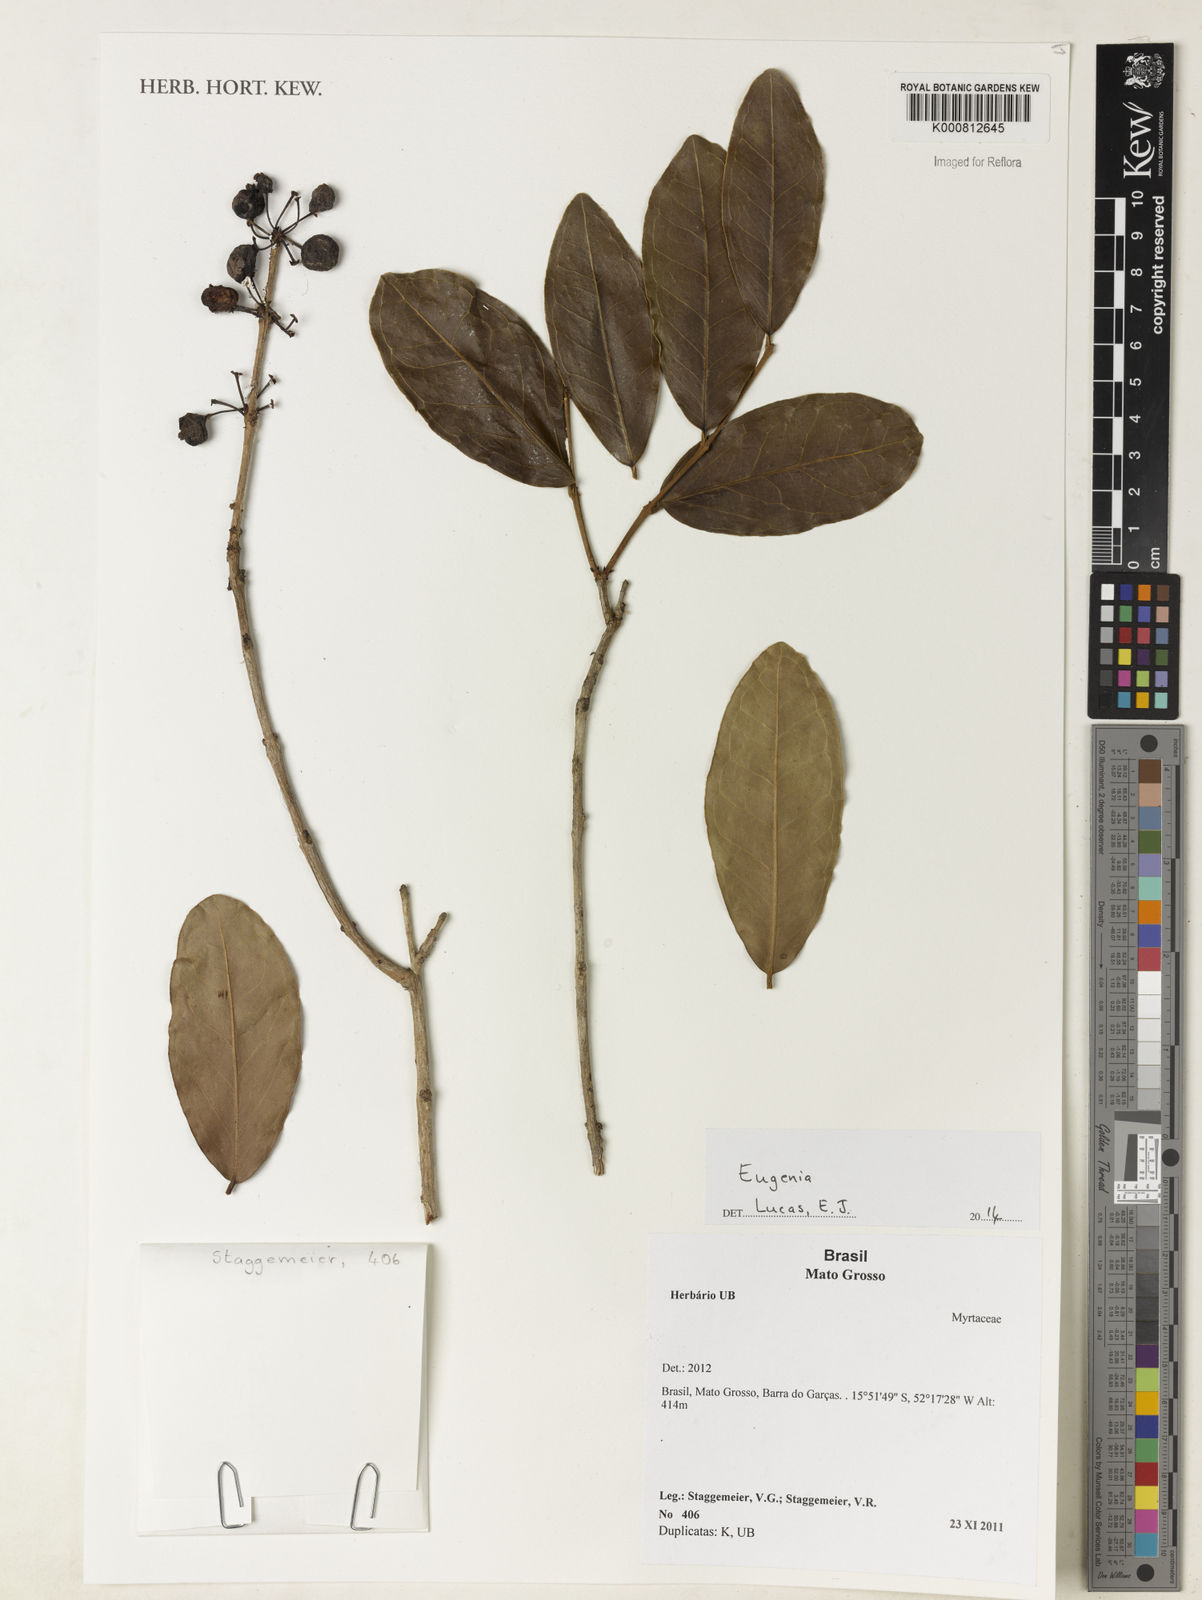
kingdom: Plantae
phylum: Tracheophyta
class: Magnoliopsida
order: Myrtales
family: Myrtaceae
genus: Eugenia
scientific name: Eugenia
